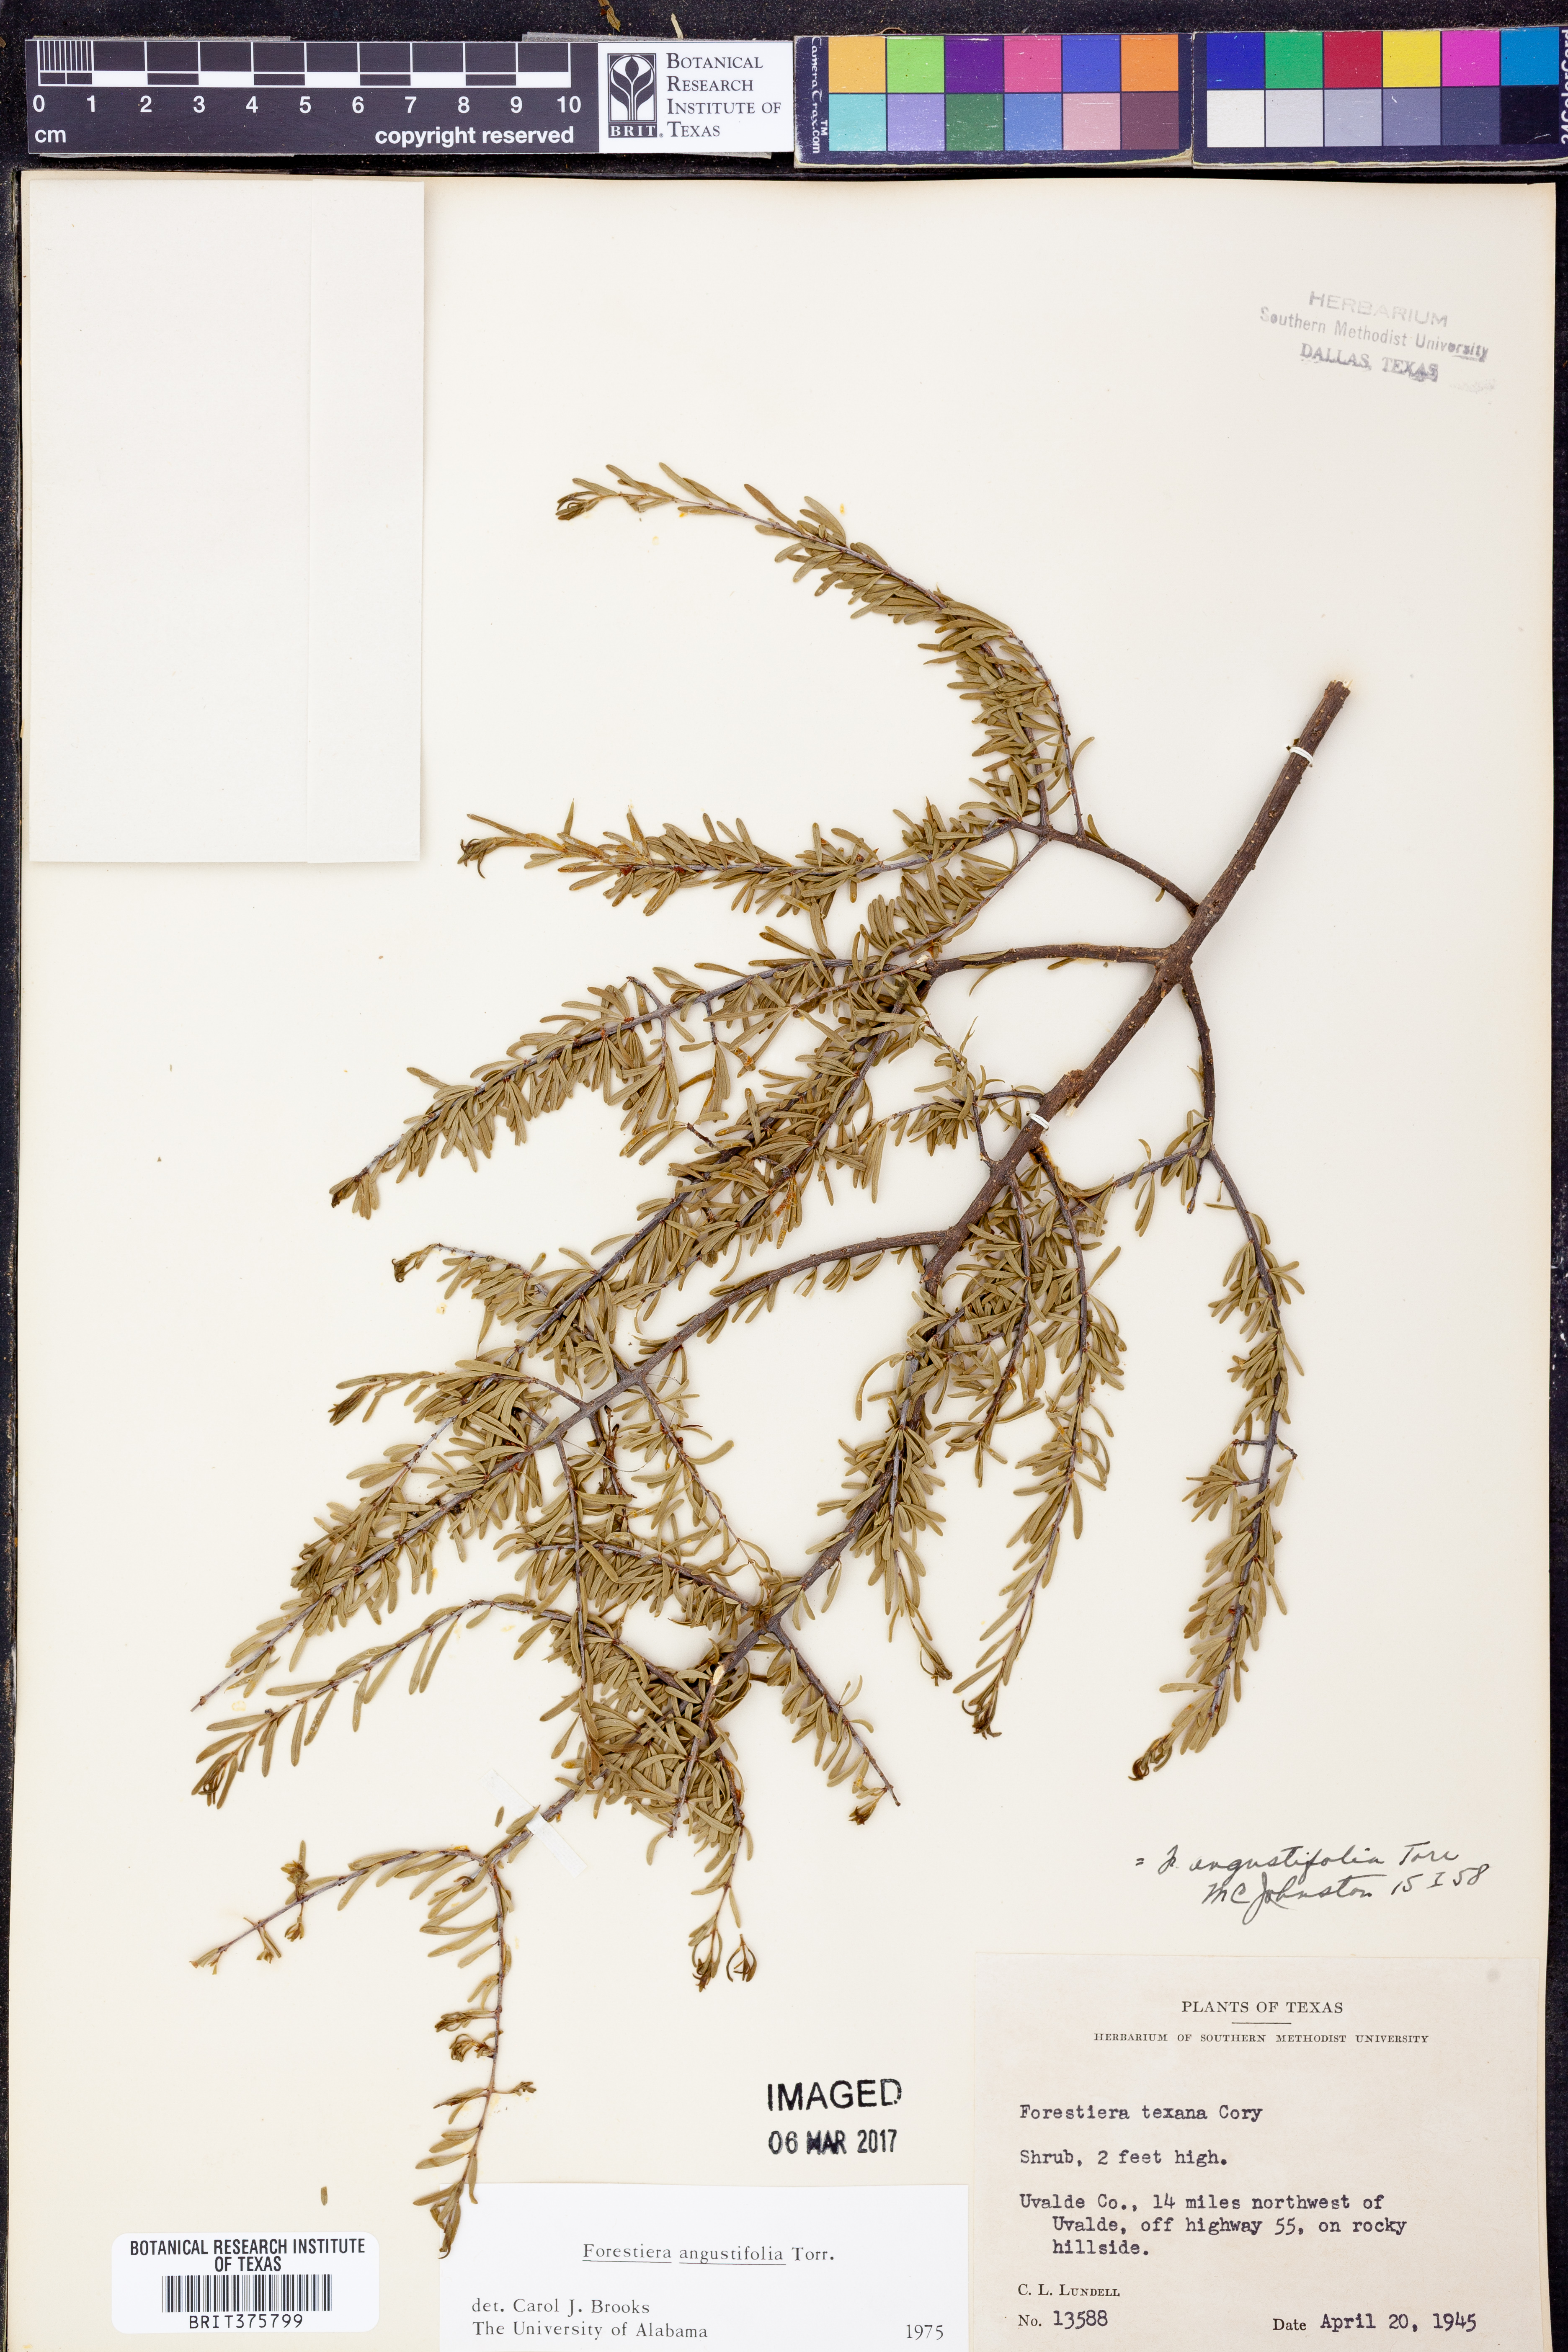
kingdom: Plantae
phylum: Tracheophyta
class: Magnoliopsida
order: Lamiales
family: Oleaceae
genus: Forestiera
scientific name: Forestiera angustifolia
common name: Elbowbush
